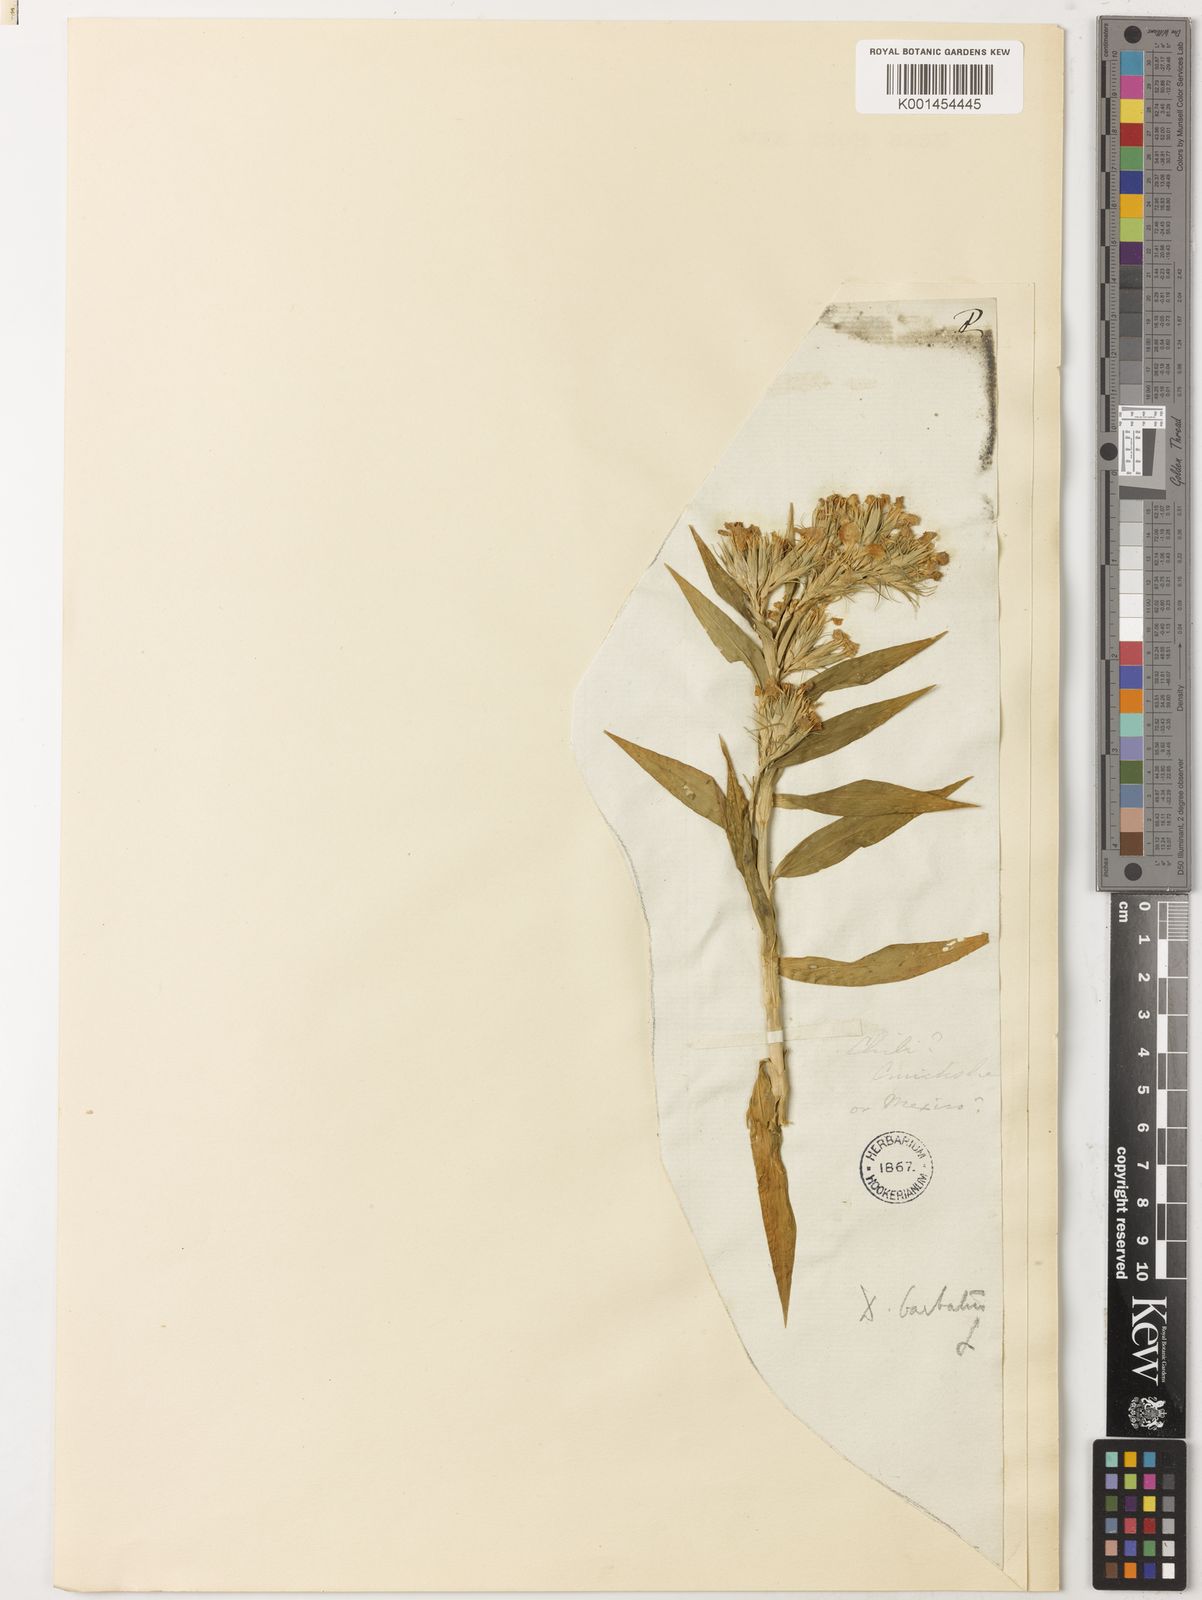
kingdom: Plantae
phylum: Tracheophyta
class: Magnoliopsida
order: Caryophyllales
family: Caryophyllaceae
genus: Dianthus
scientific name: Dianthus barbatus
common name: Sweet-william
